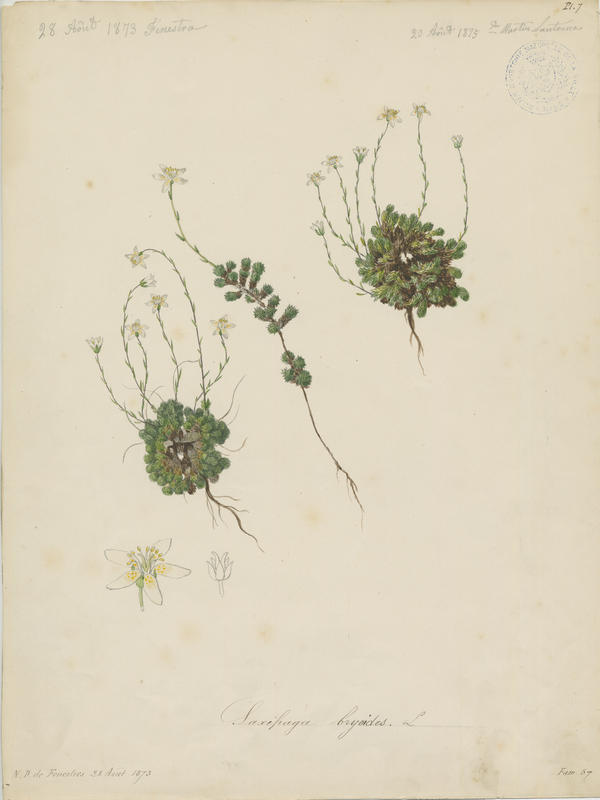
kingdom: Plantae
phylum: Tracheophyta
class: Magnoliopsida
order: Saxifragales
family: Saxifragaceae
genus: Saxifraga
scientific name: Saxifraga bryoides
